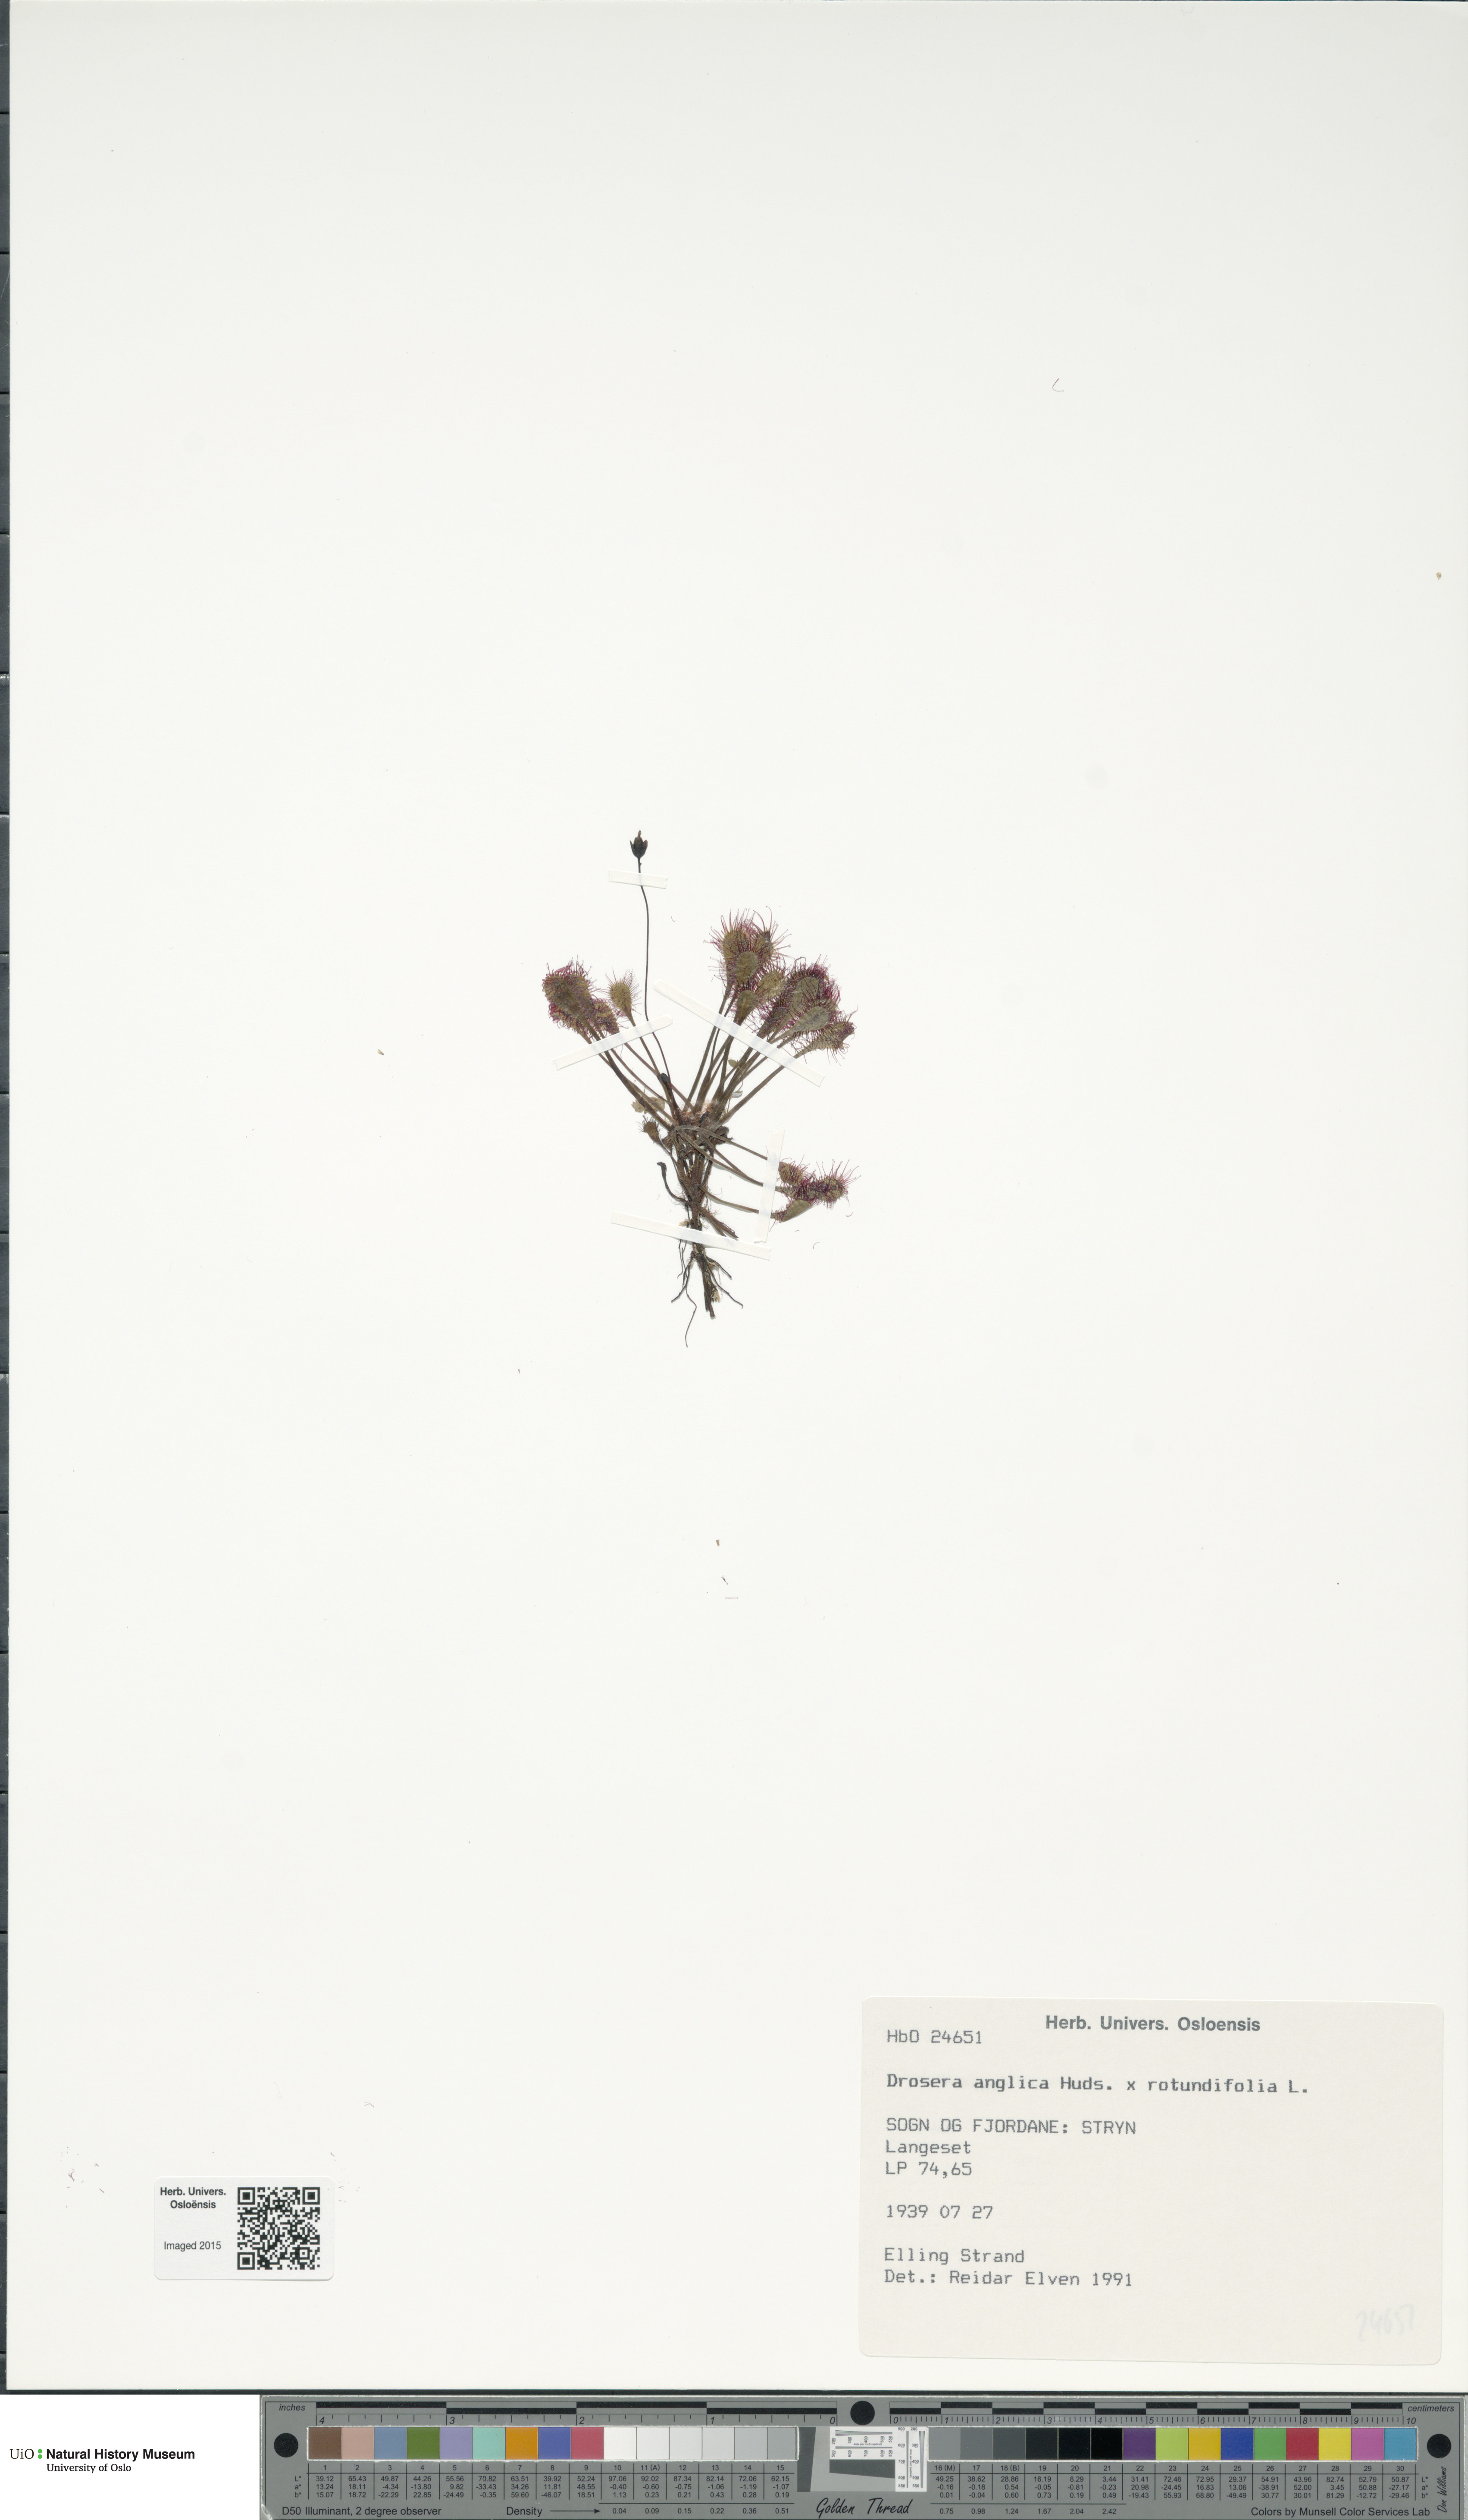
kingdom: Plantae
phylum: Tracheophyta
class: Magnoliopsida
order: Caryophyllales
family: Droseraceae
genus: Drosera
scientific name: Drosera
